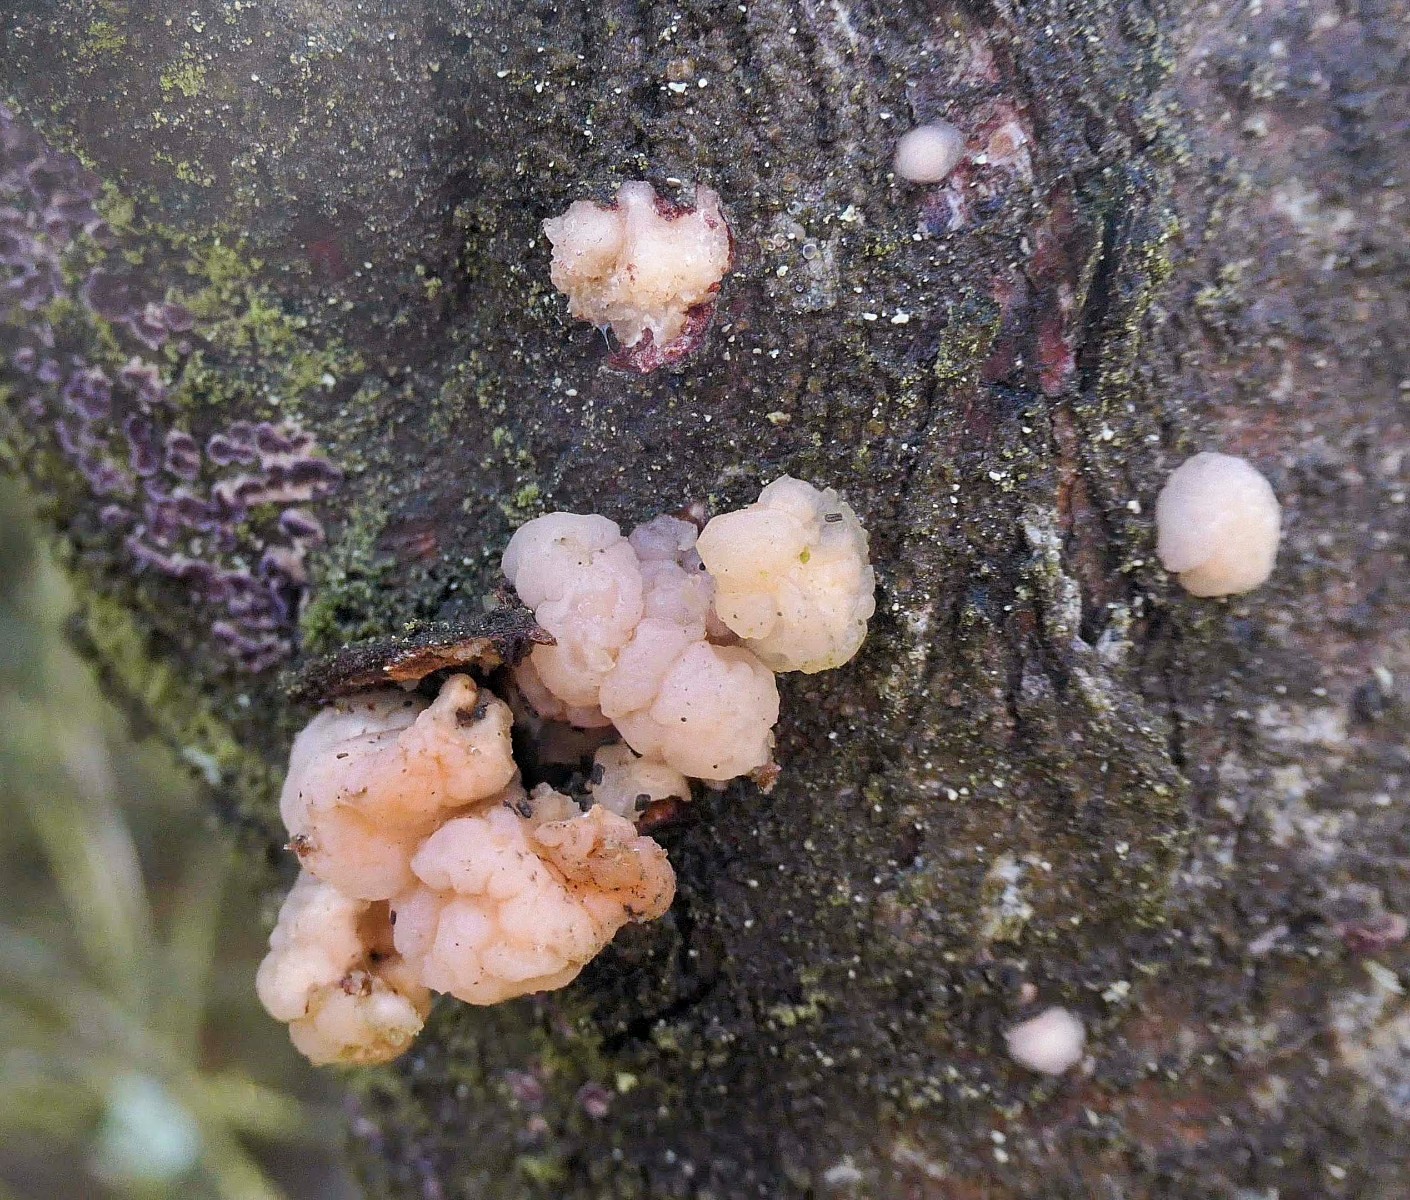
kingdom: Fungi
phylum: Basidiomycota
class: Tremellomycetes
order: Tremellales
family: Naemateliaceae
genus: Naematelia
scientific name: Naematelia encephala
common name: fyrre-bævresvamp
